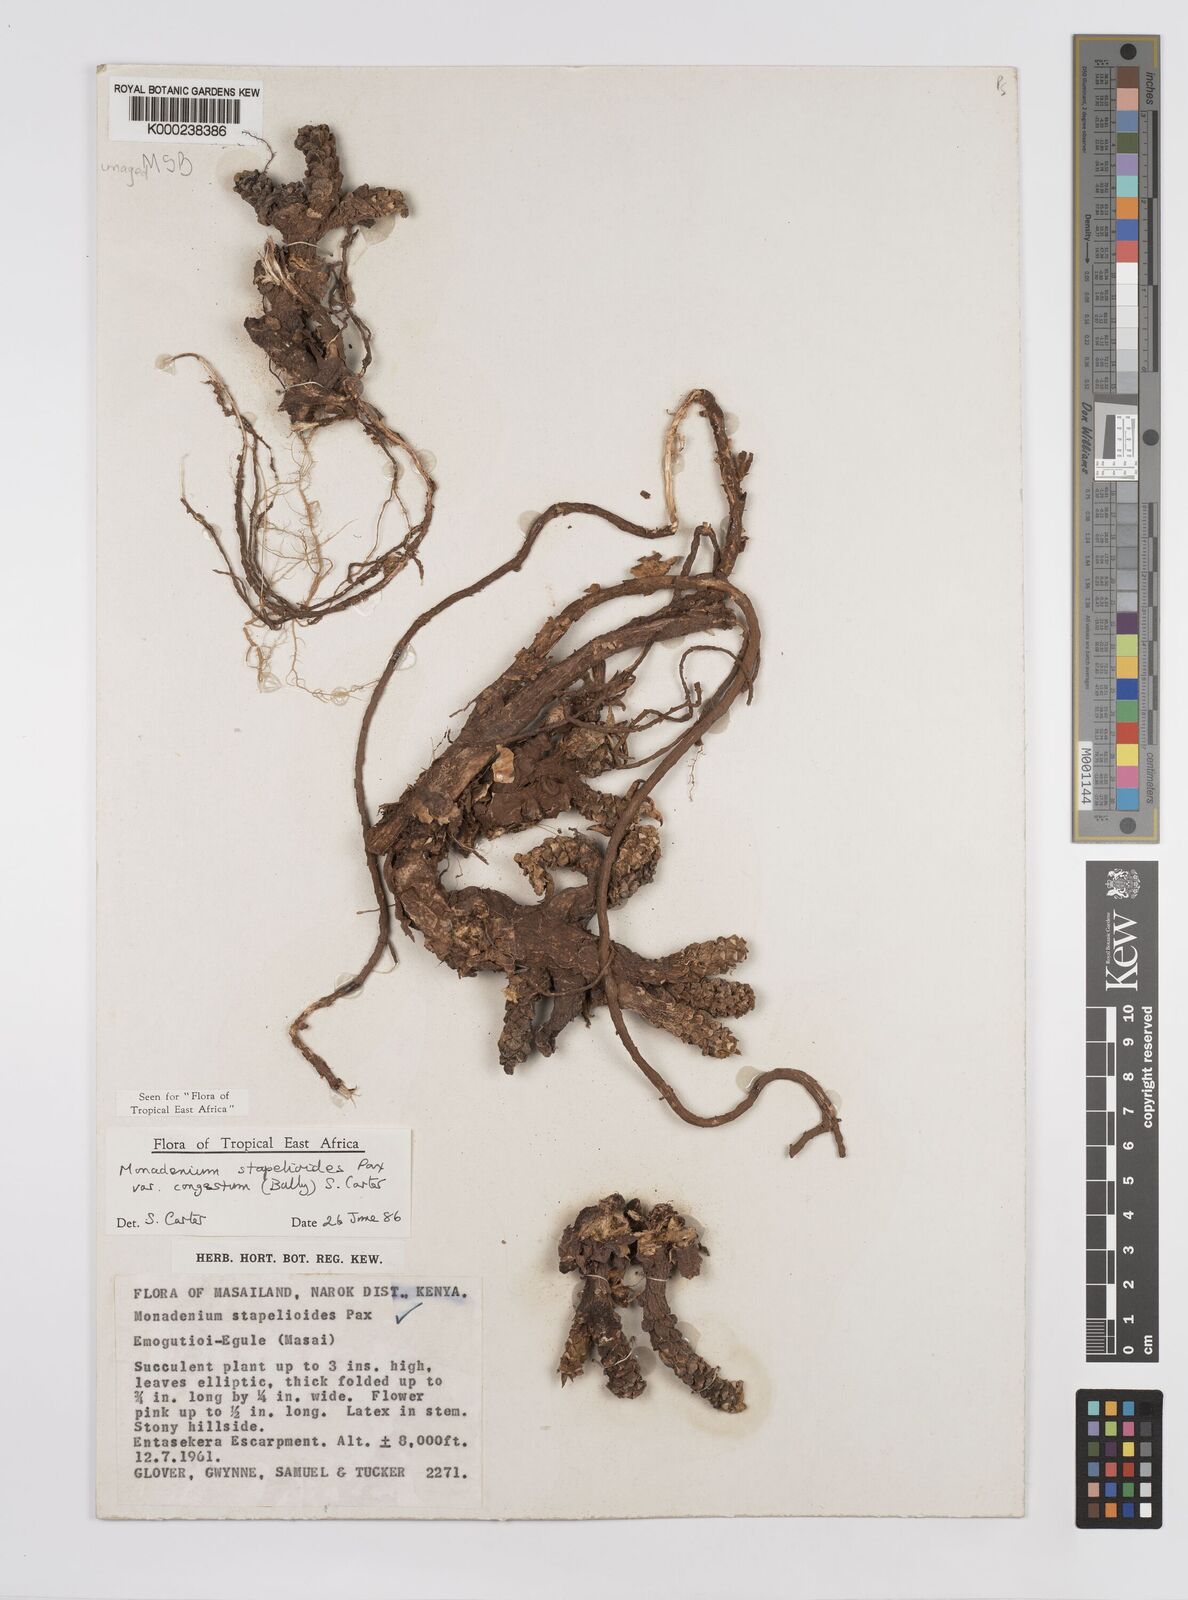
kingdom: Plantae
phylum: Tracheophyta
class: Magnoliopsida
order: Malpighiales
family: Euphorbiaceae
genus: Euphorbia
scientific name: Euphorbia succulenta
